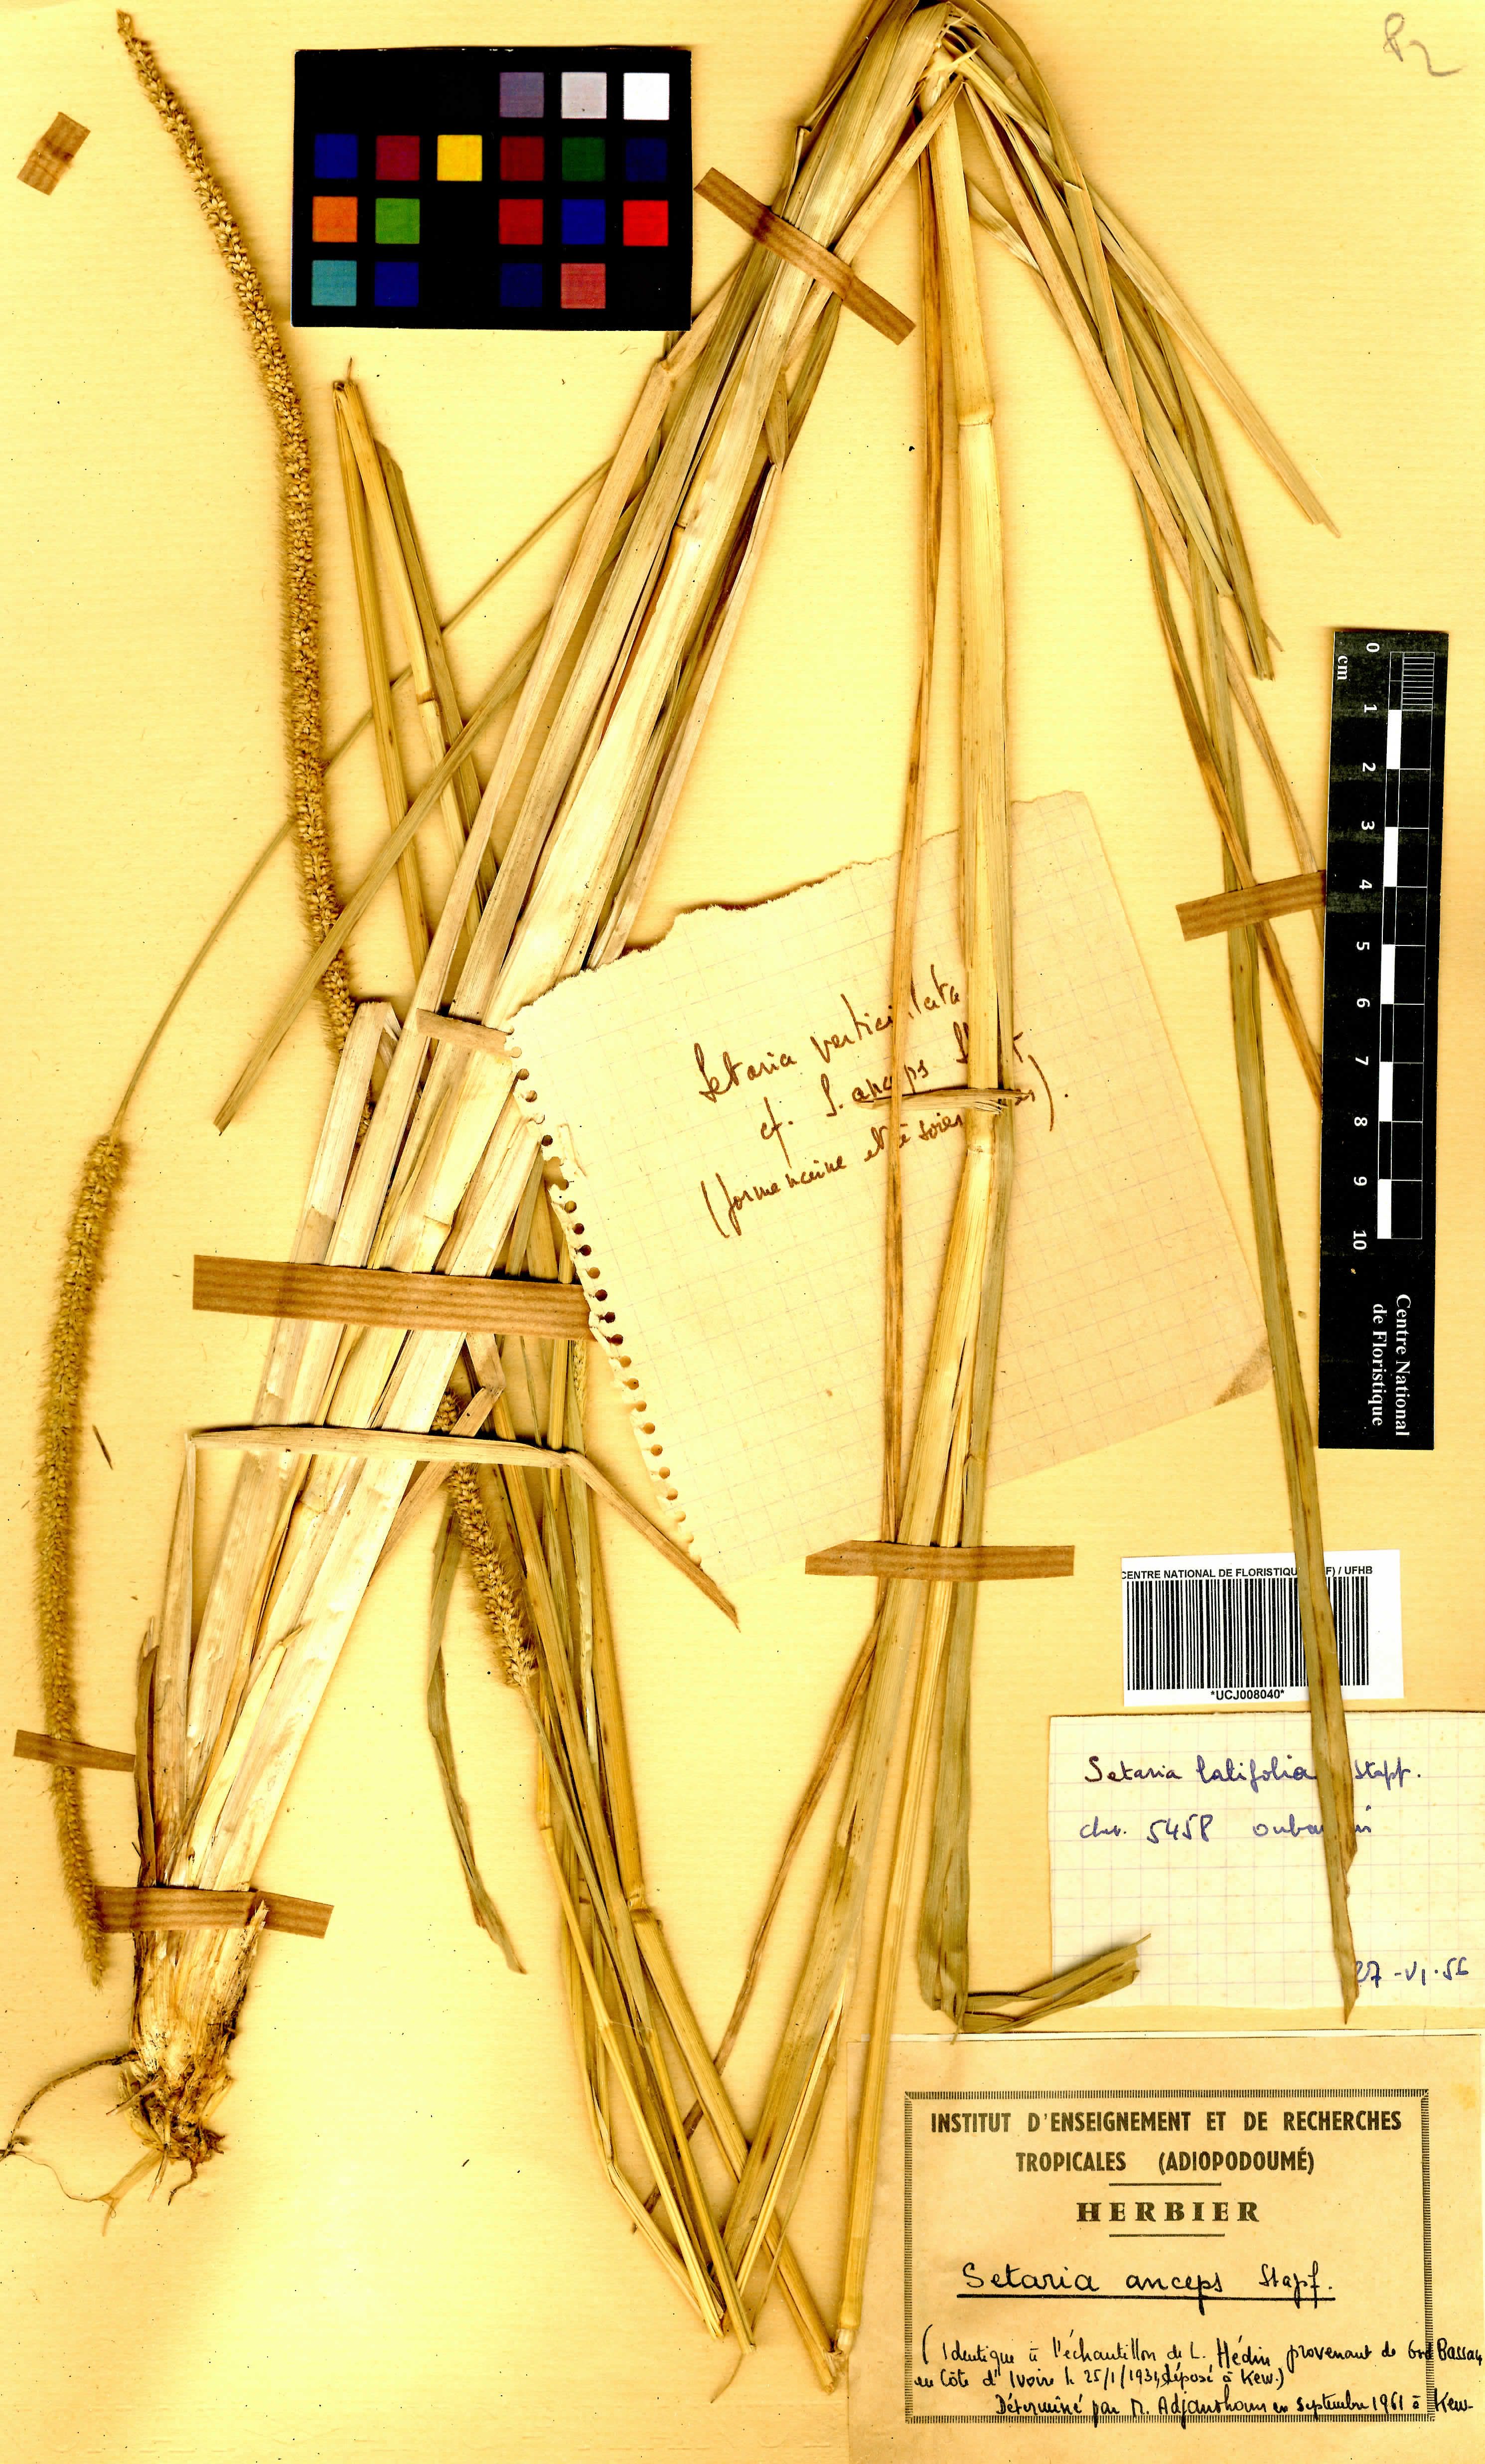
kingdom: Plantae
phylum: Tracheophyta
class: Liliopsida
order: Poales
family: Poaceae
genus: Setaria
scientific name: Setaria sphacelata
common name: African bristlegrass
